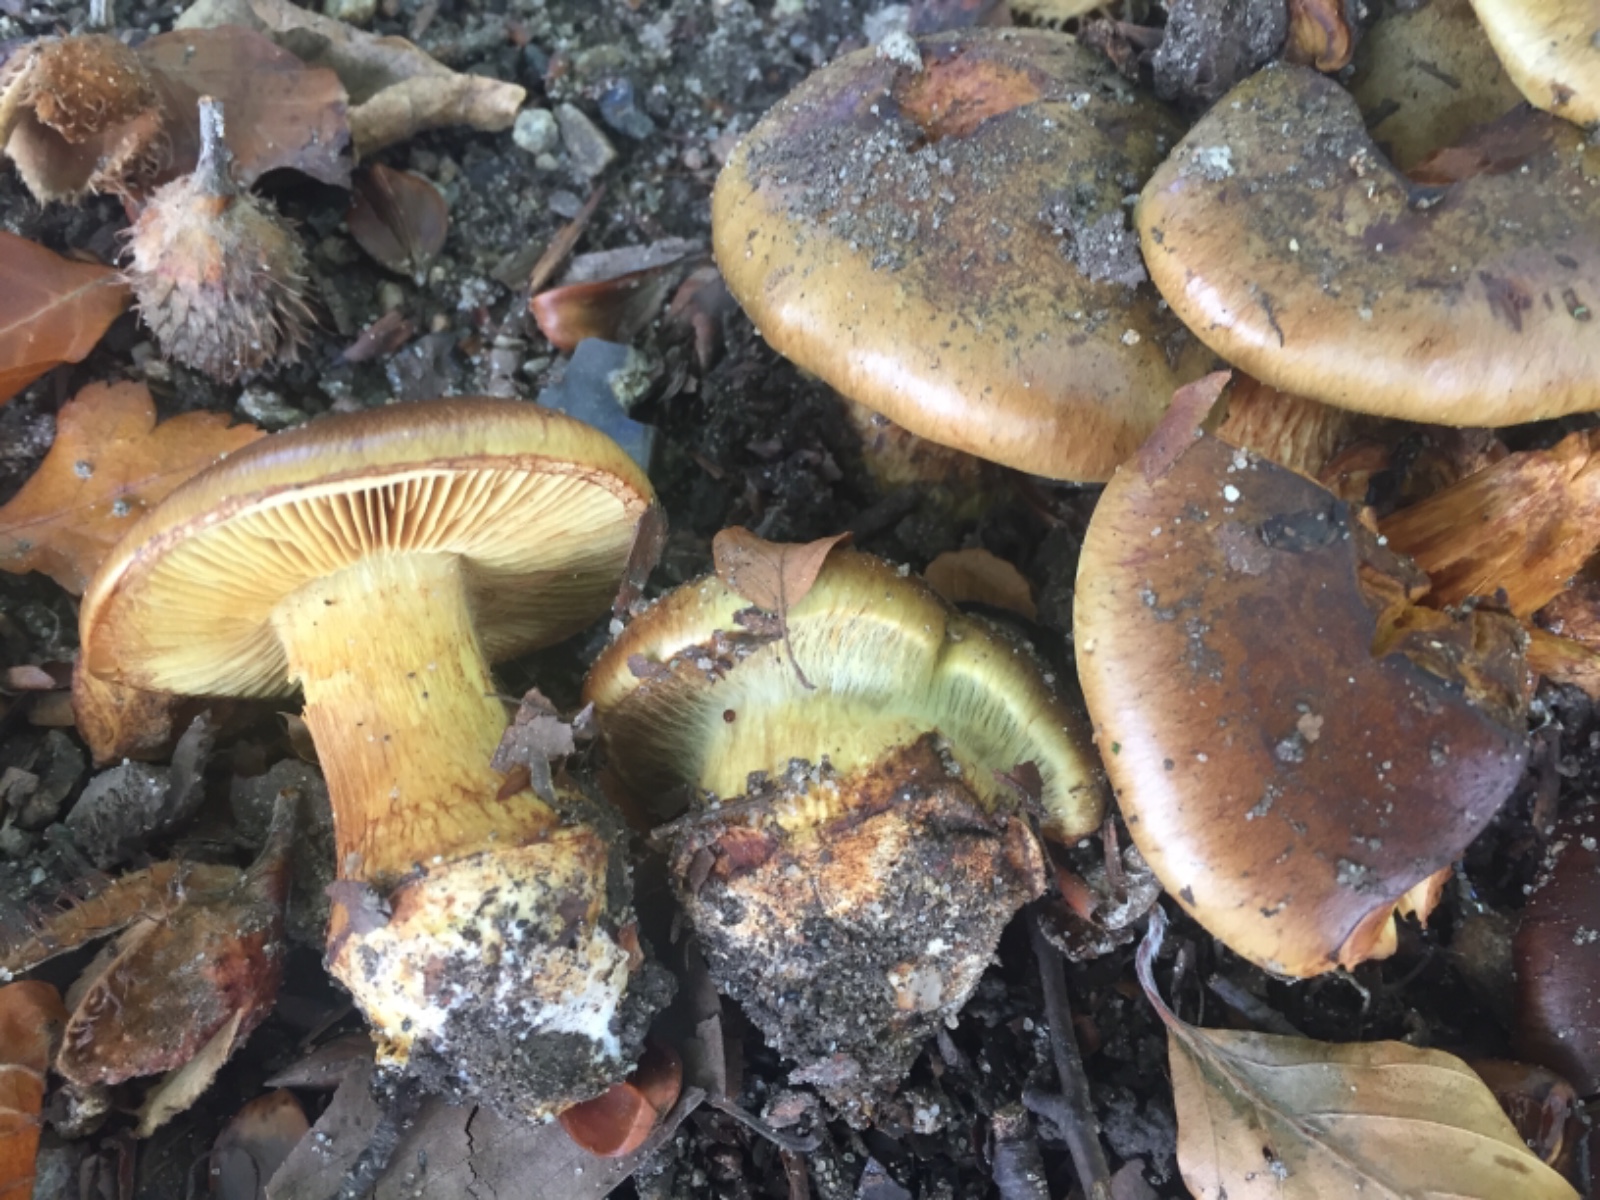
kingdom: Fungi
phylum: Basidiomycota
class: Agaricomycetes
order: Agaricales
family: Cortinariaceae
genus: Calonarius
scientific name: Calonarius xanthochlorus
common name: gulgrøn slørhat
